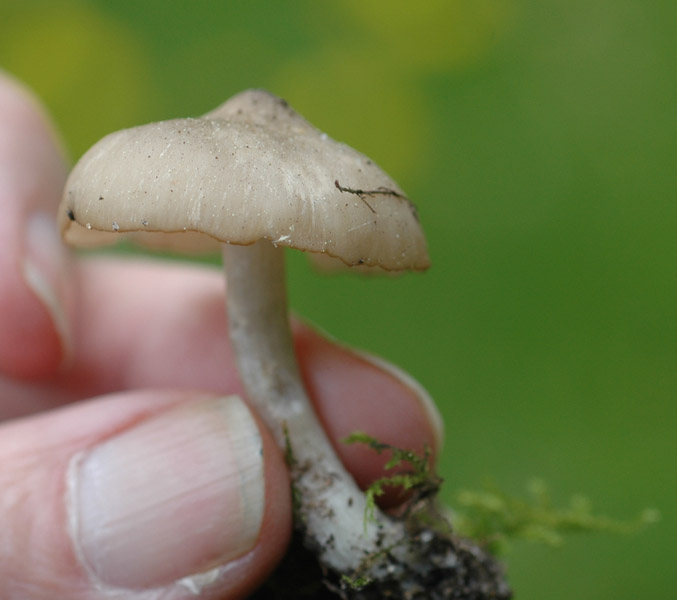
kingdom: Fungi
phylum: Basidiomycota
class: Agaricomycetes
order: Agaricales
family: Entolomataceae
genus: Entoloma
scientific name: Entoloma clypeatum
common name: flammet rødblad
